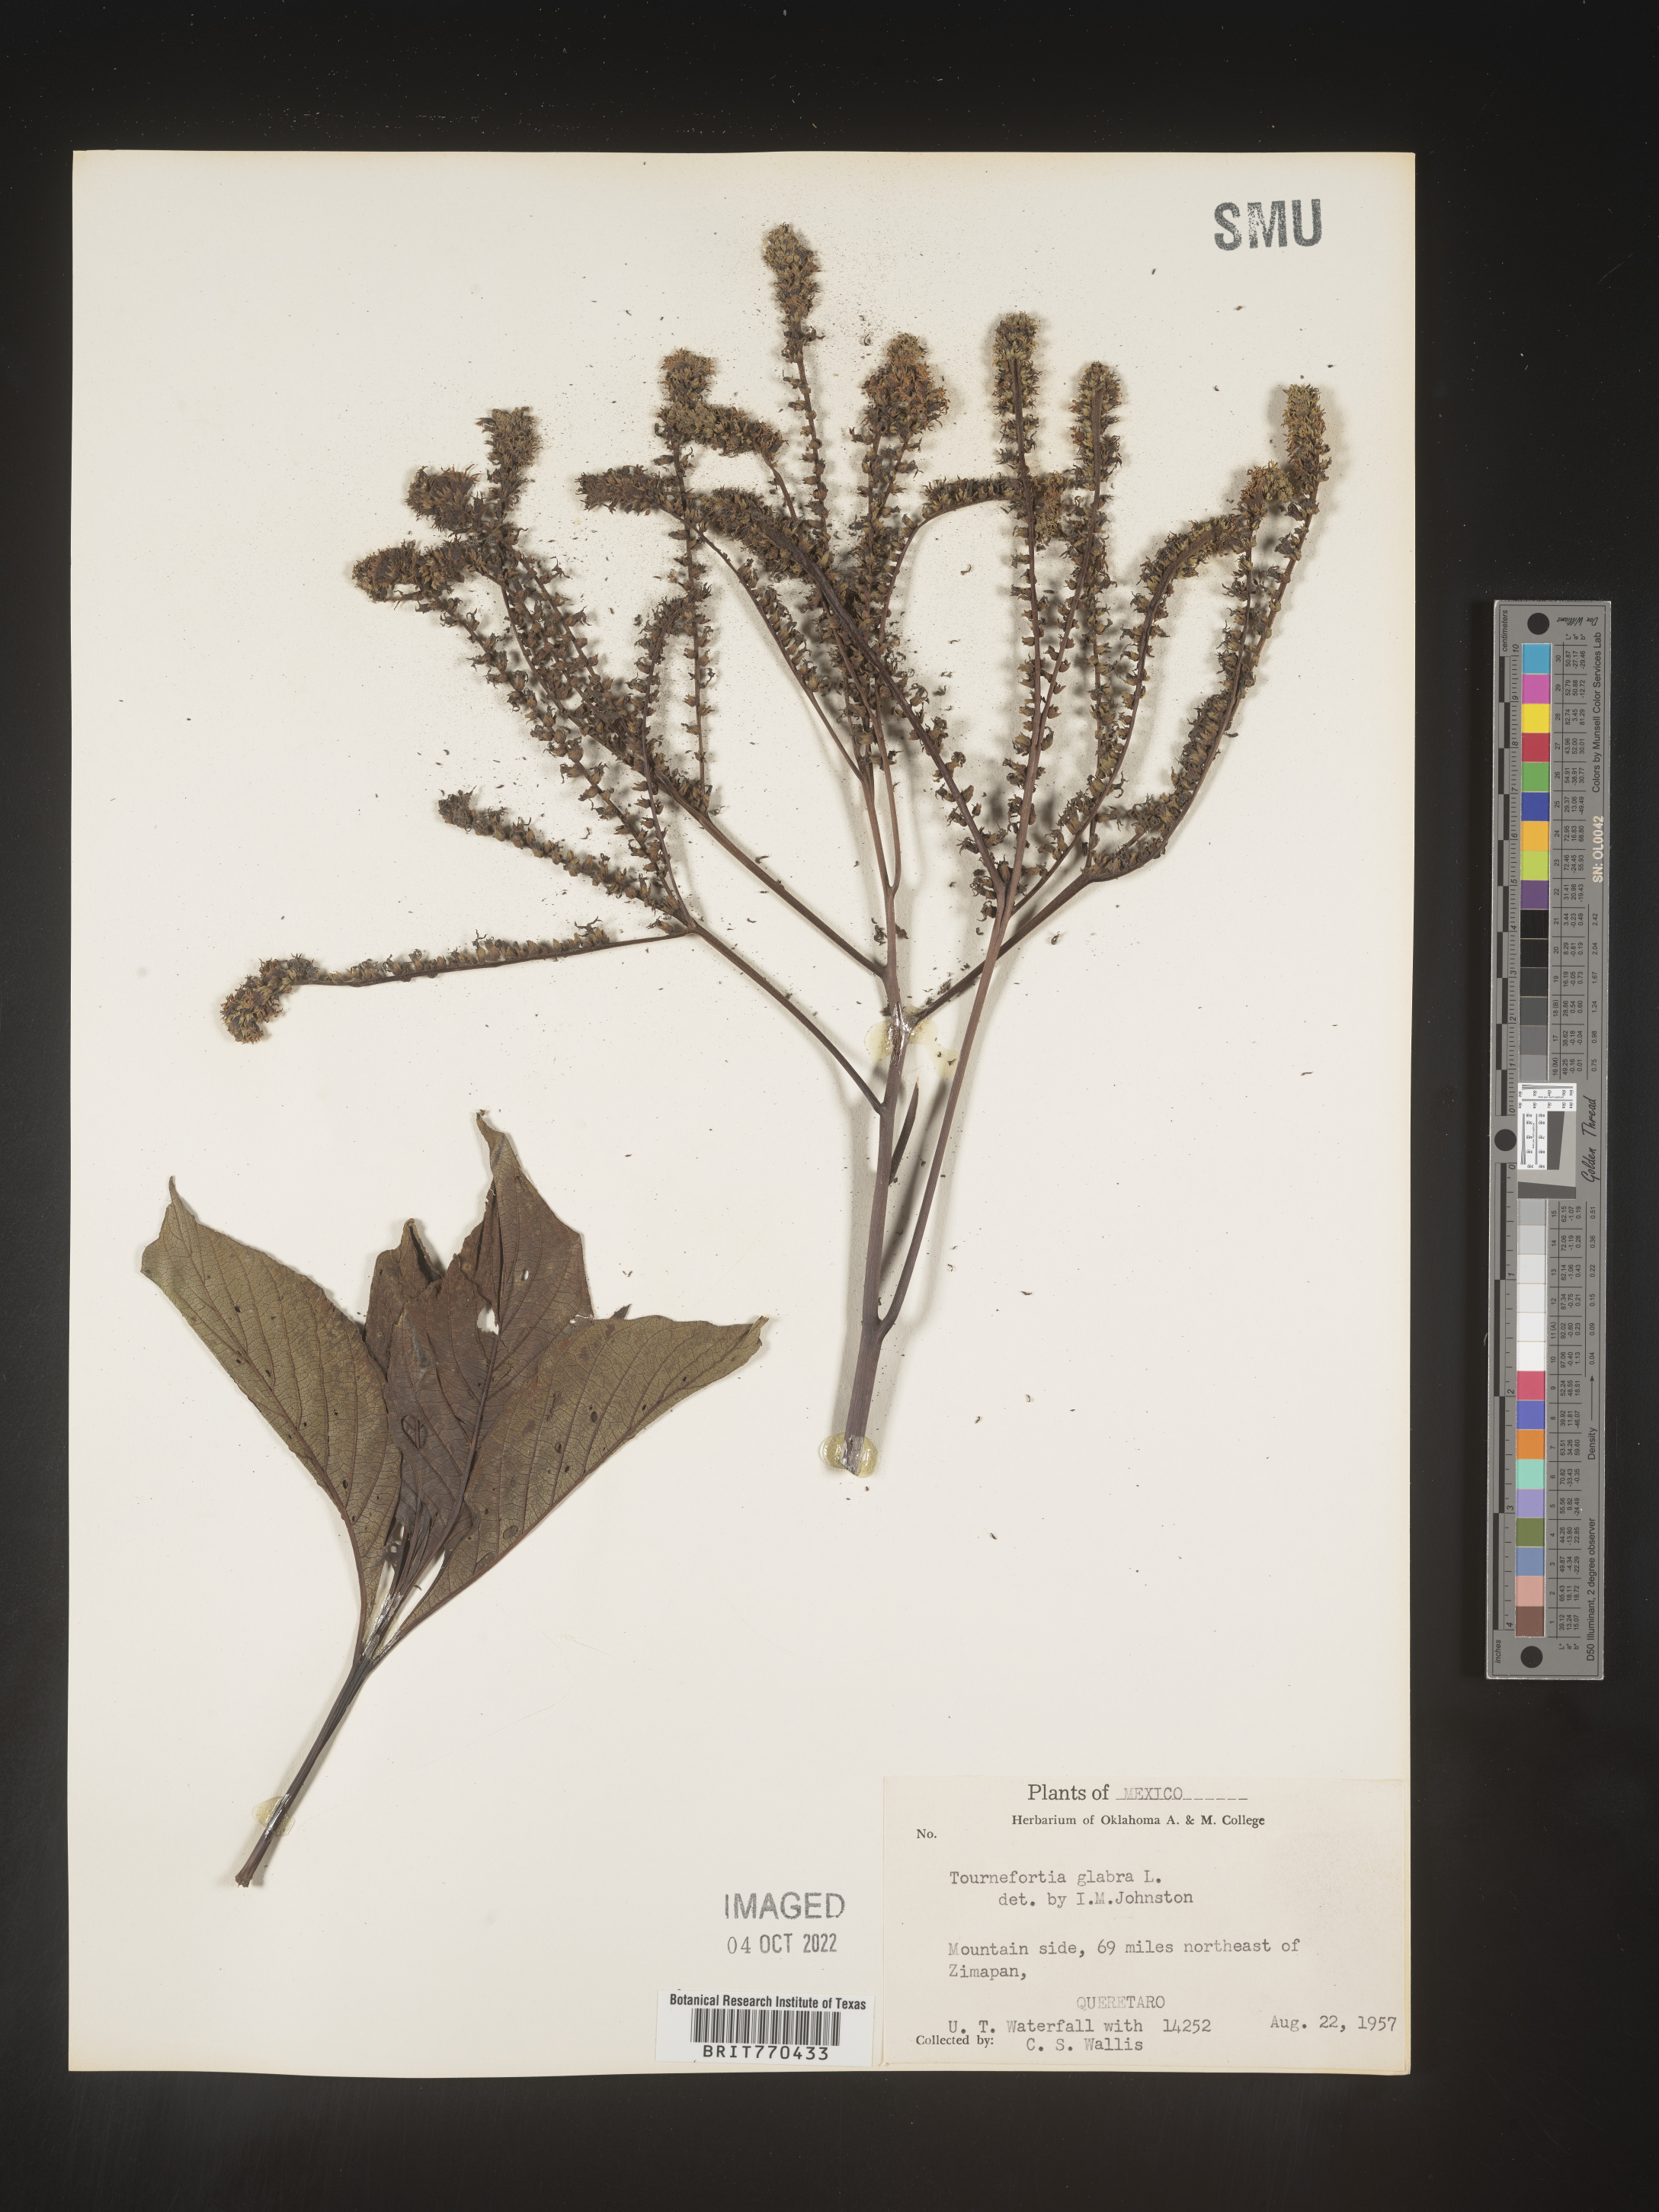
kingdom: Plantae
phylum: Tracheophyta
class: Magnoliopsida
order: Boraginales
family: Heliotropiaceae
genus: Tournefortia
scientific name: Tournefortia
